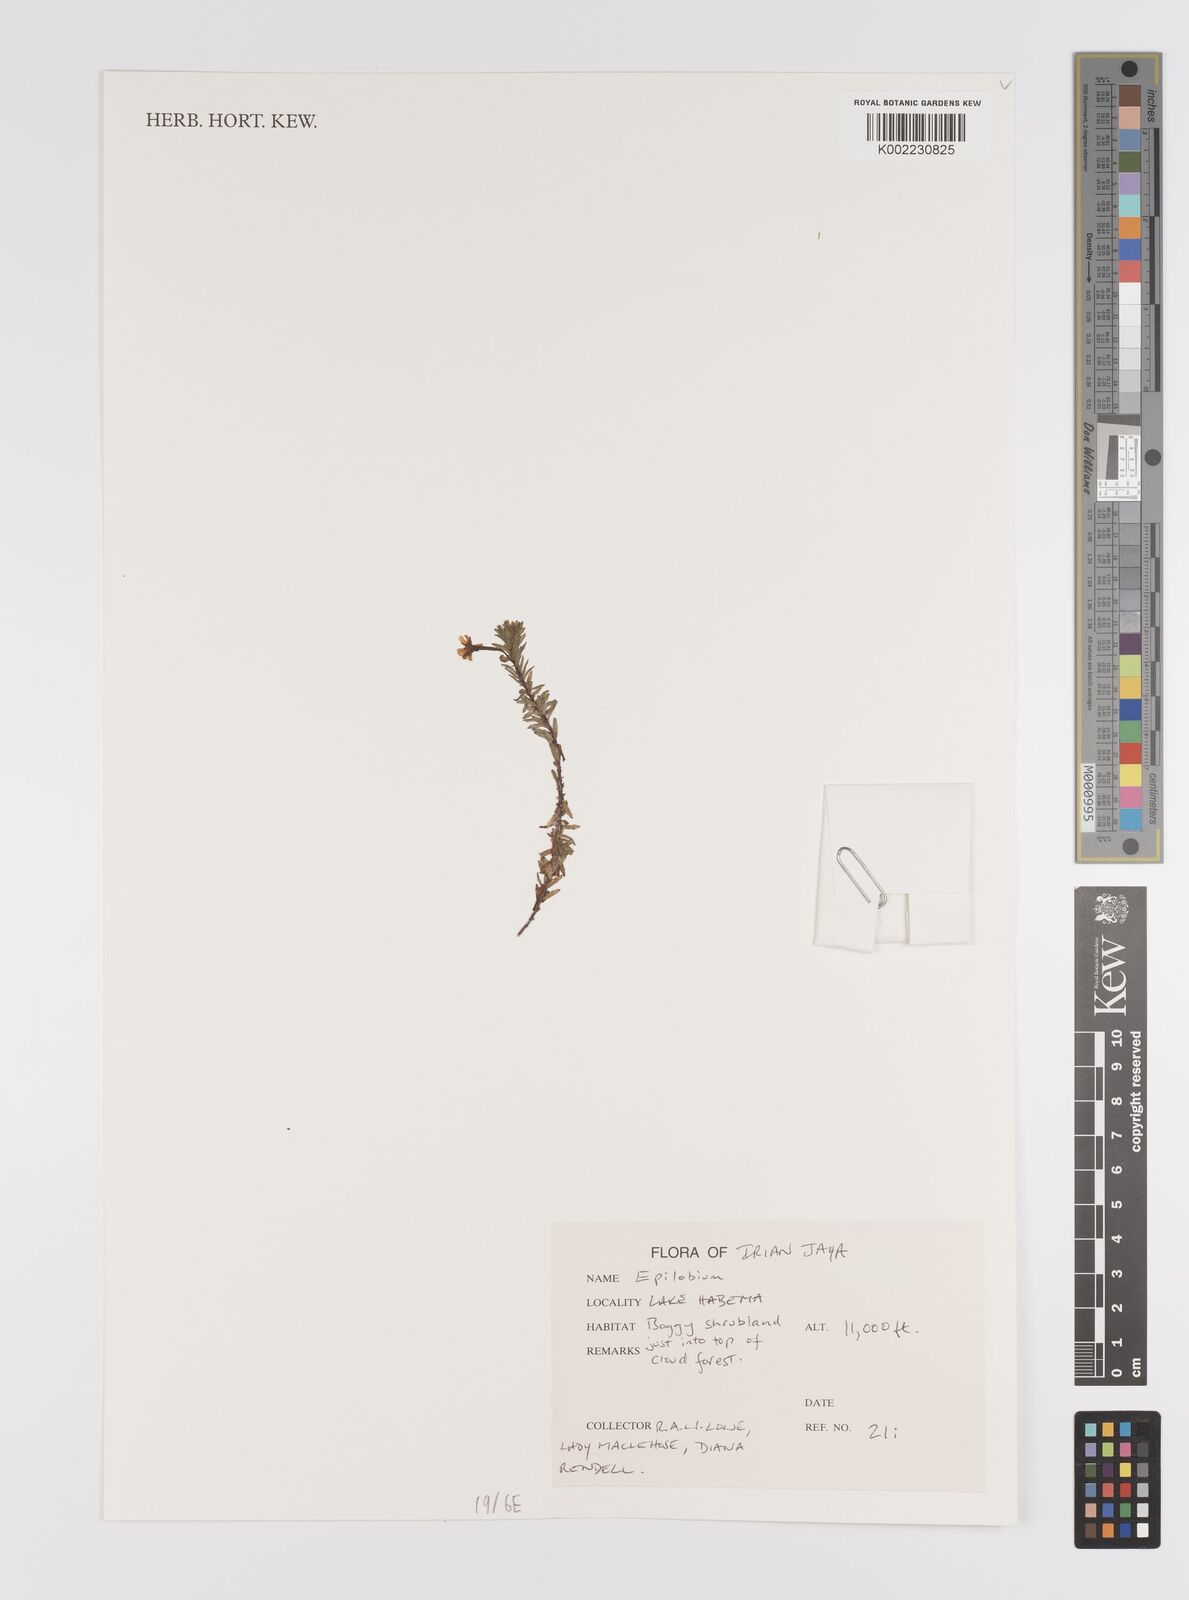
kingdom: Plantae
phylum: Tracheophyta
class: Magnoliopsida
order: Myrtales
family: Onagraceae
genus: Epilobium
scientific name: Epilobium
